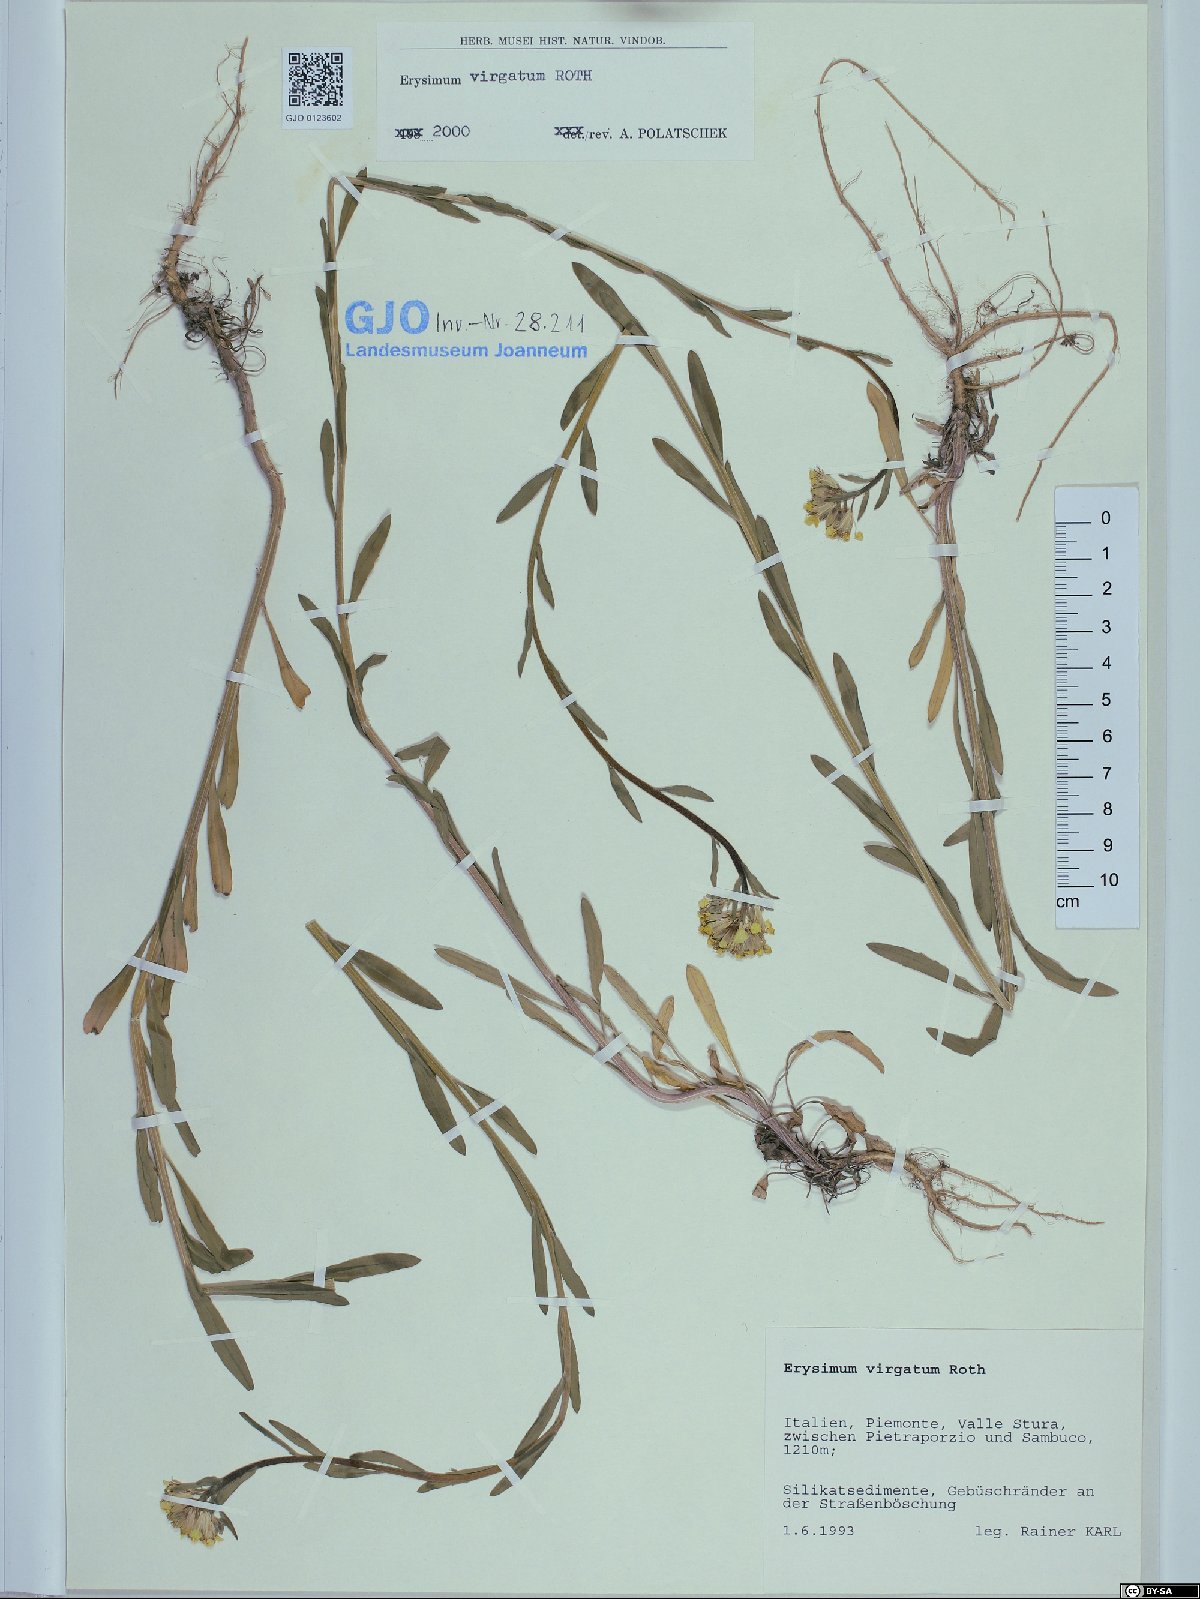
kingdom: Plantae
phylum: Tracheophyta
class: Magnoliopsida
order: Brassicales
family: Brassicaceae
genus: Erysimum
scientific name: Erysimum virgatum
